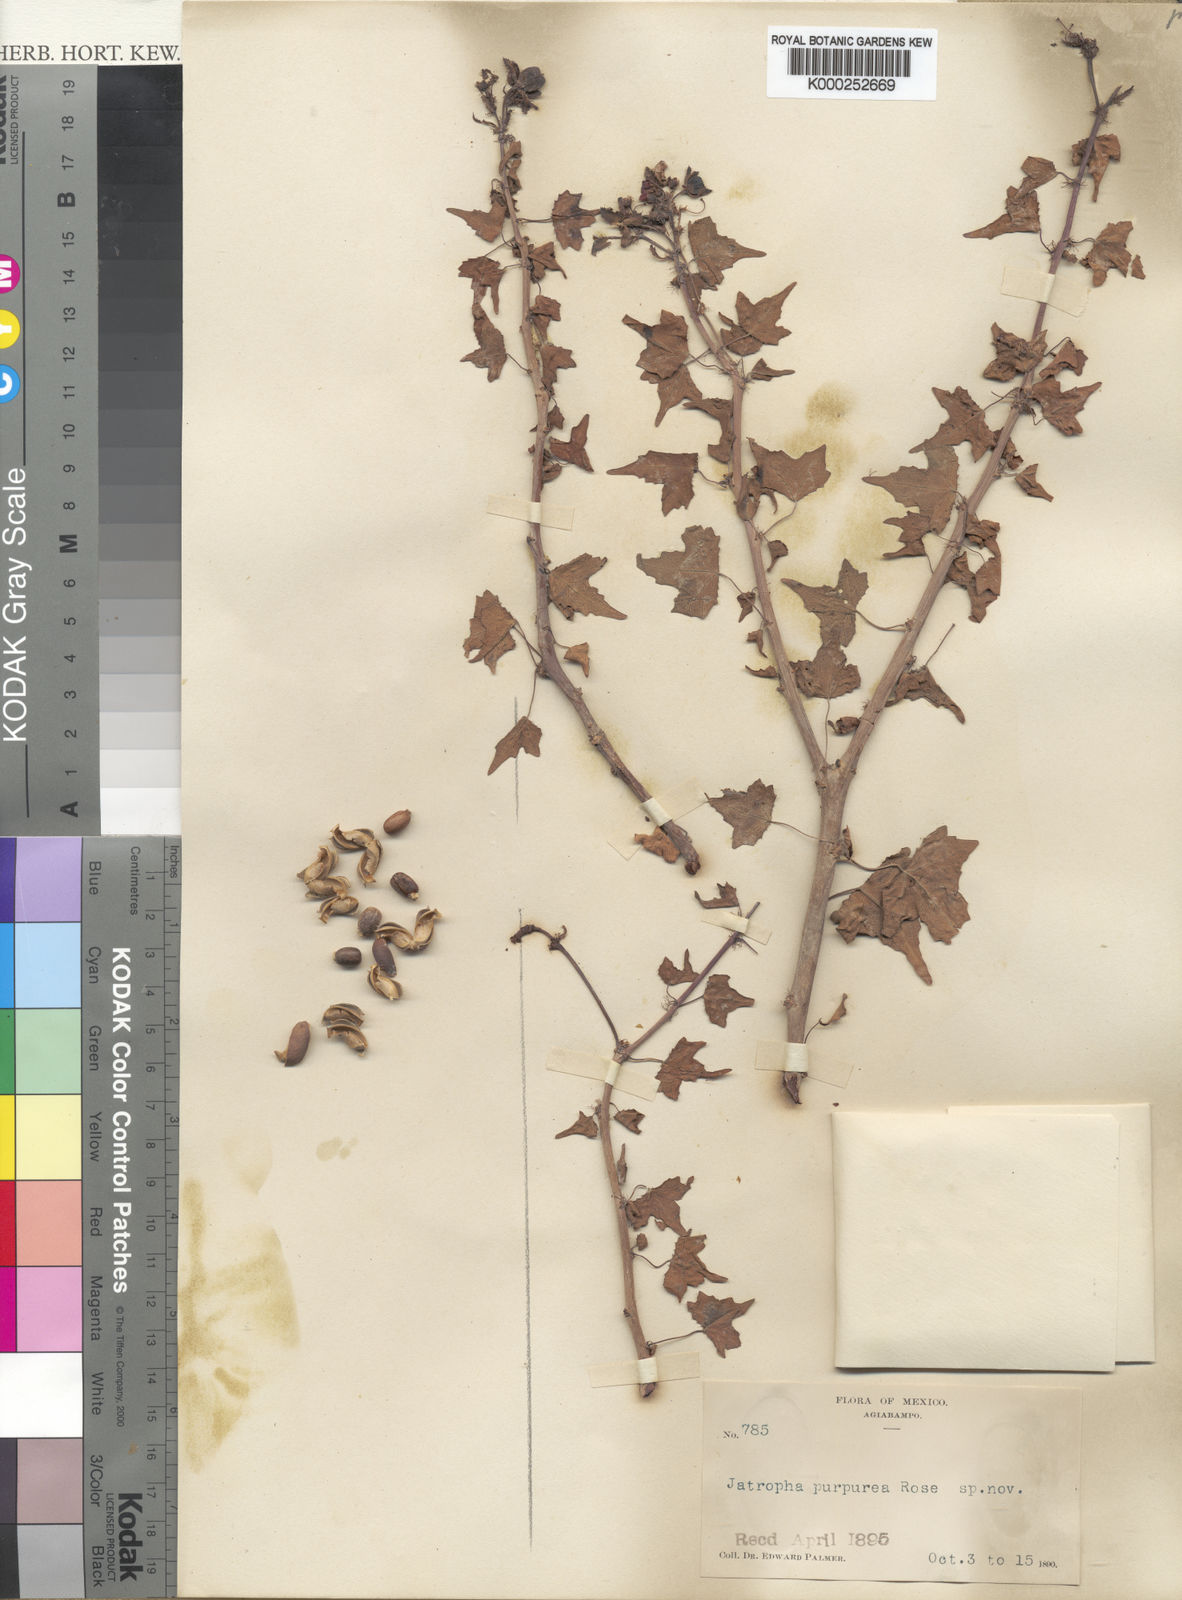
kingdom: Plantae
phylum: Tracheophyta
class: Magnoliopsida
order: Malpighiales
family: Euphorbiaceae
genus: Jatropha
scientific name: Jatropha purpurea
